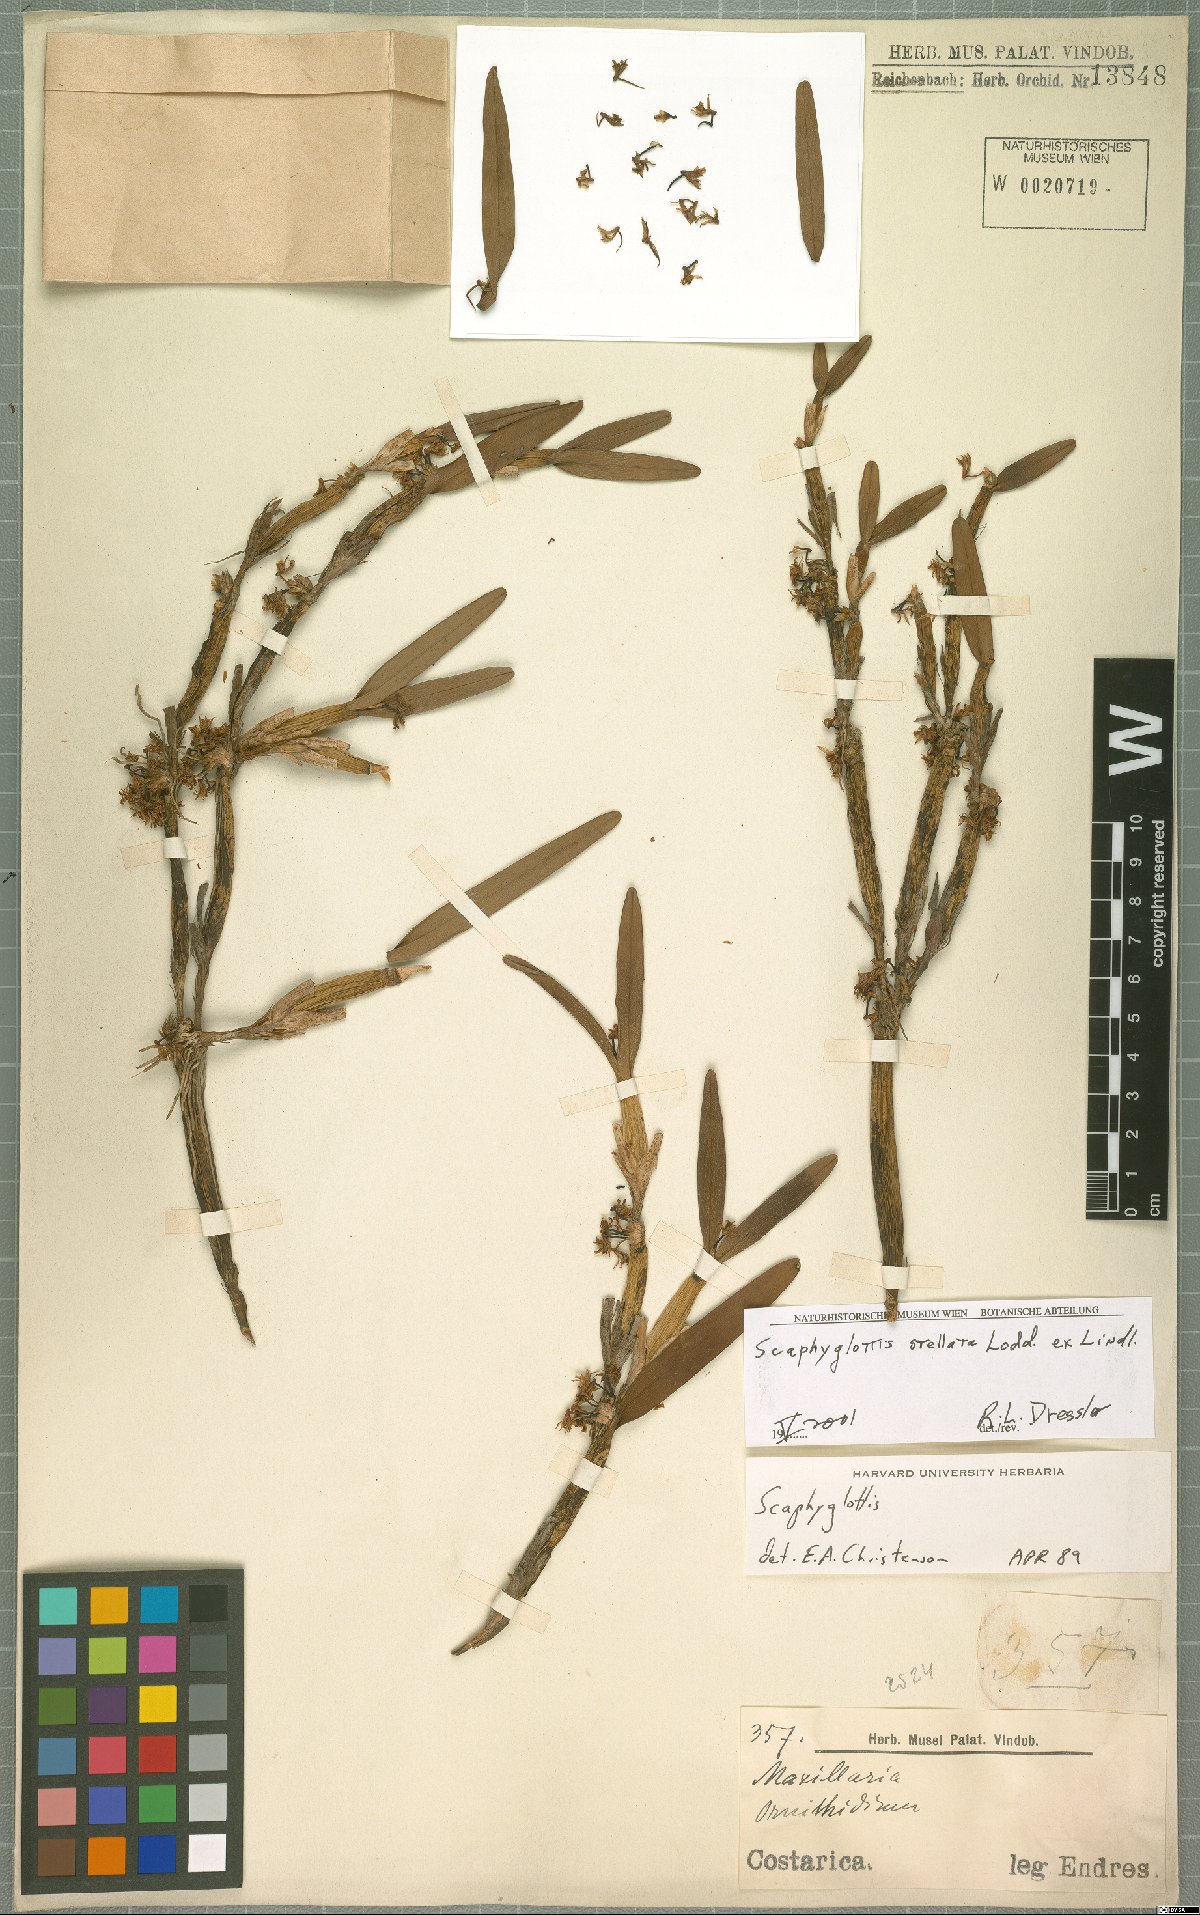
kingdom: Plantae
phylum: Tracheophyta
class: Liliopsida
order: Asparagales
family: Orchidaceae
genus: Scaphyglottis
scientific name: Scaphyglottis stellata
